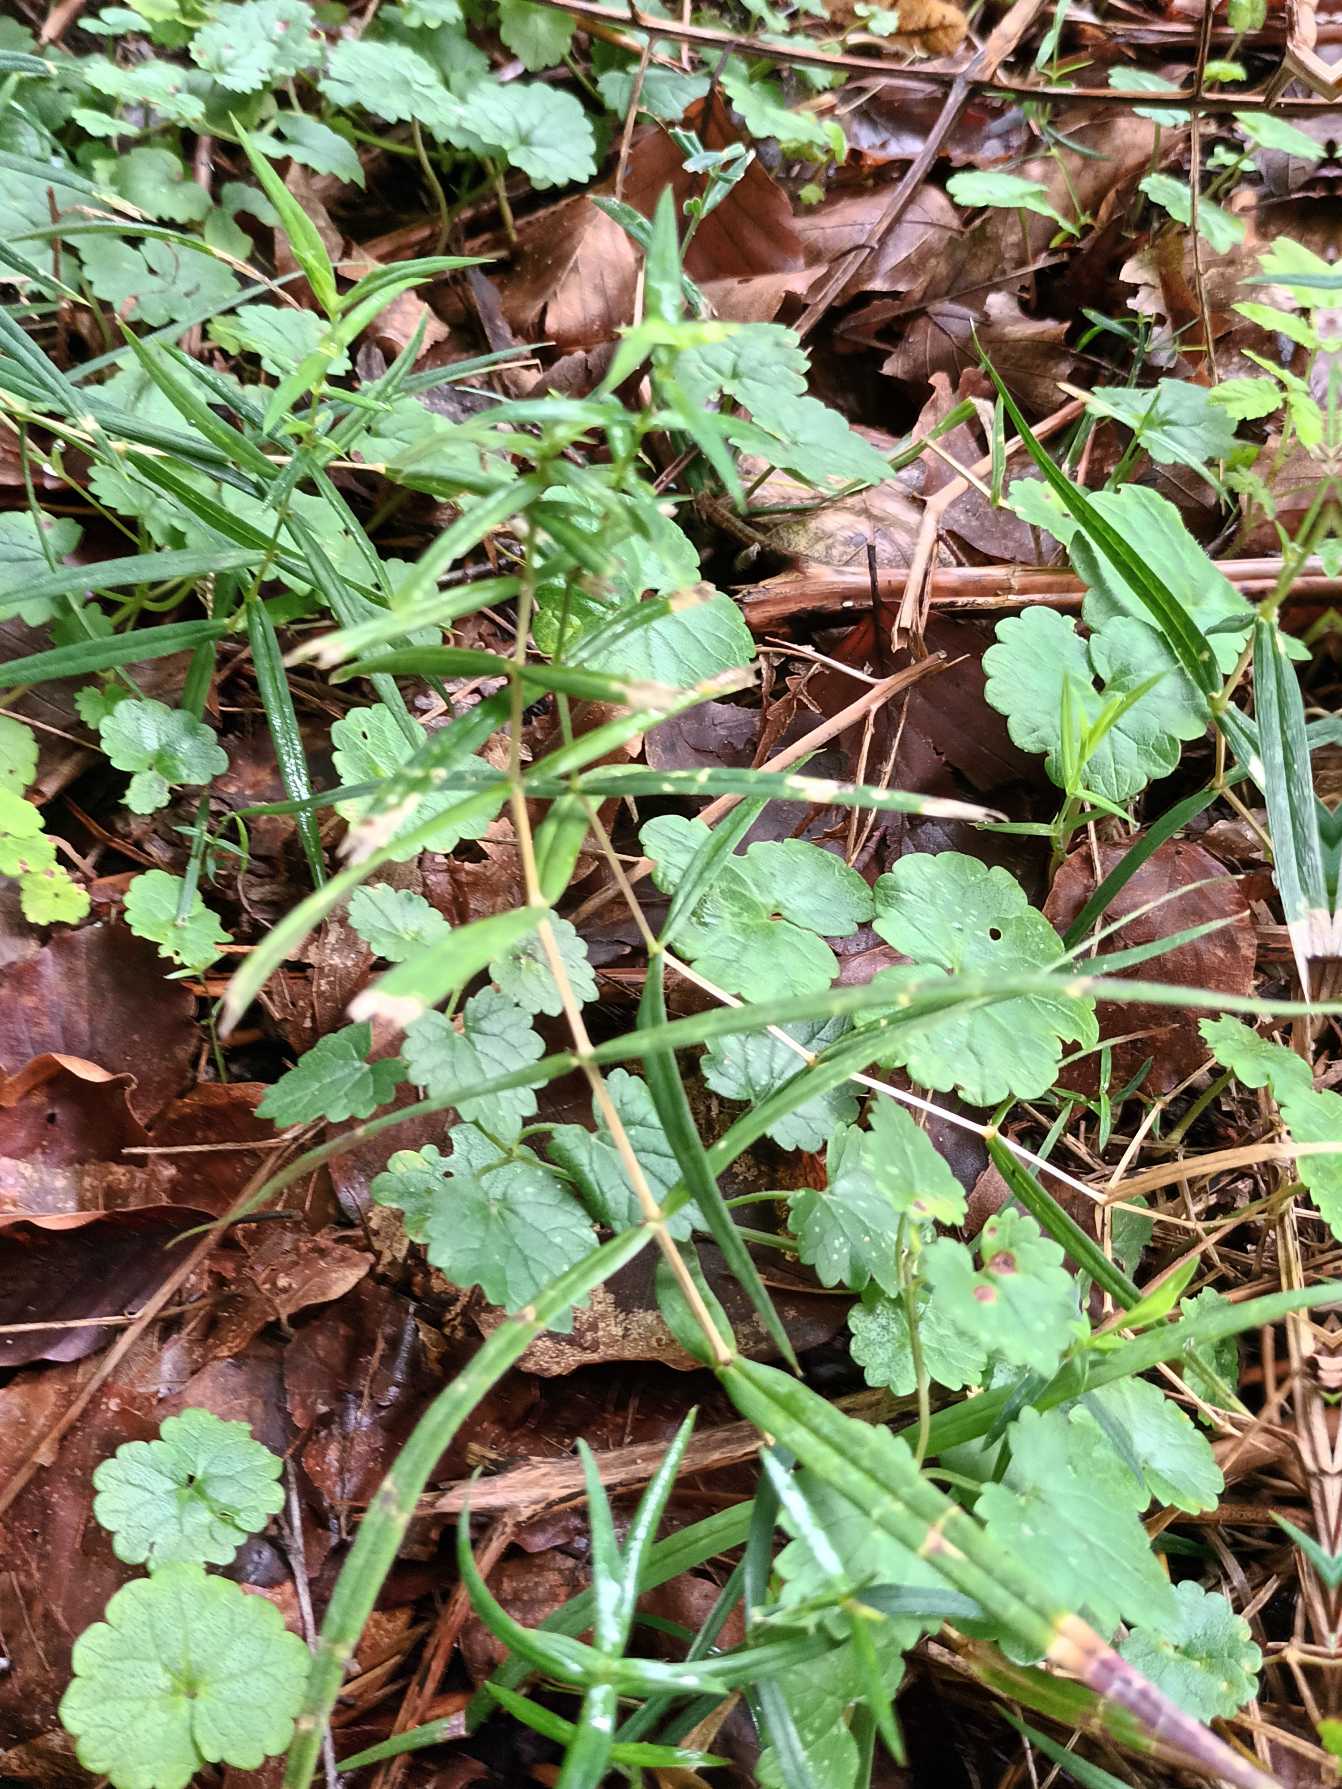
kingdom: Plantae
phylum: Tracheophyta
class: Magnoliopsida
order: Caryophyllales
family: Caryophyllaceae
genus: Rabelera
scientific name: Rabelera holostea
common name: Stor fladstjerne
